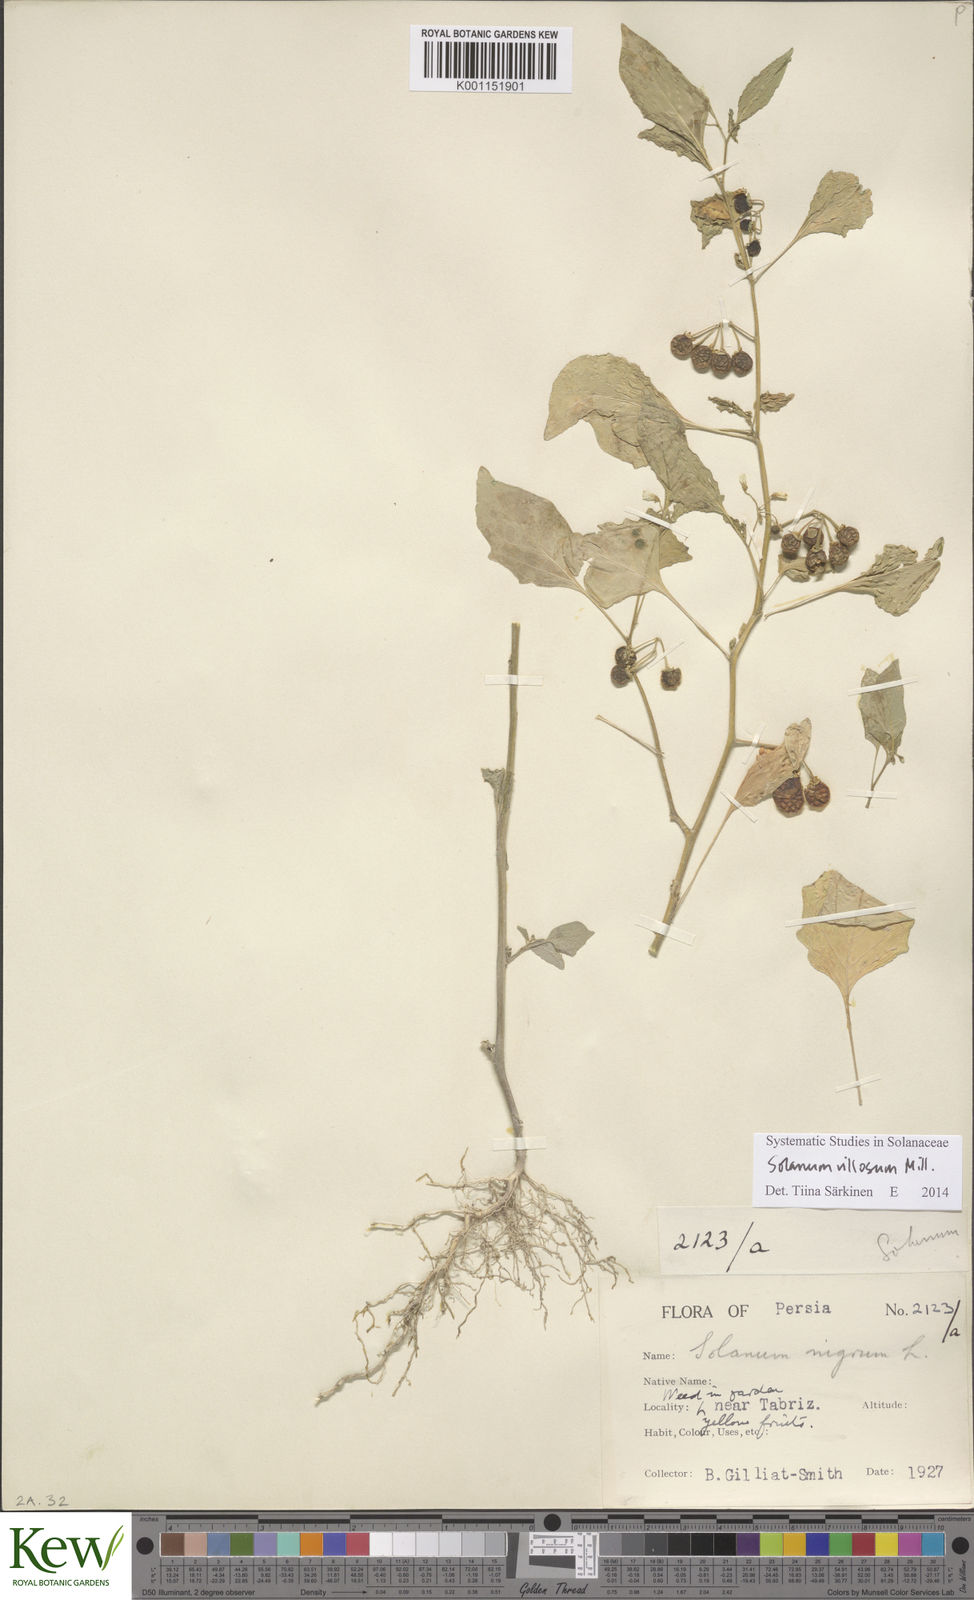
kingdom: Plantae
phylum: Tracheophyta
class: Magnoliopsida
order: Solanales
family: Solanaceae
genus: Solanum
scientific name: Solanum villosum
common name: Red nightshade
